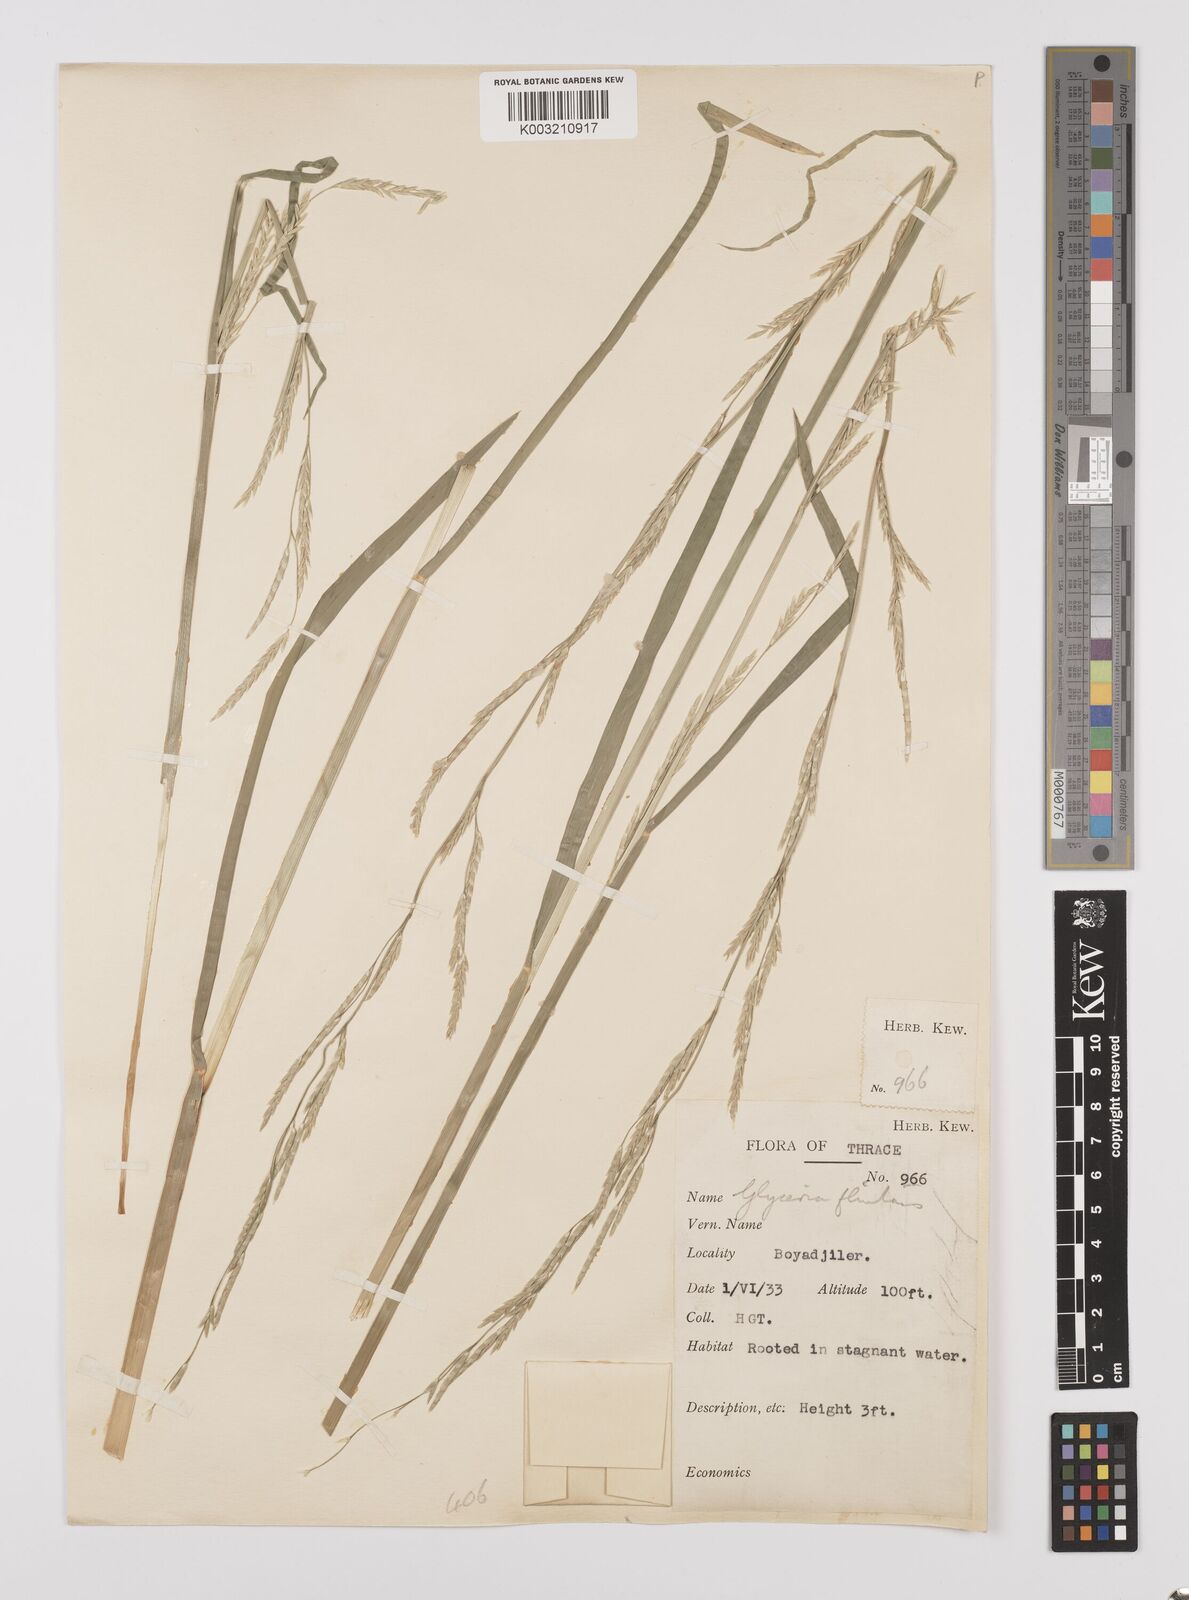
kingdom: Plantae
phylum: Tracheophyta
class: Liliopsida
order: Poales
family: Poaceae
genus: Glyceria
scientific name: Glyceria fluitans
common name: Floating sweet-grass
